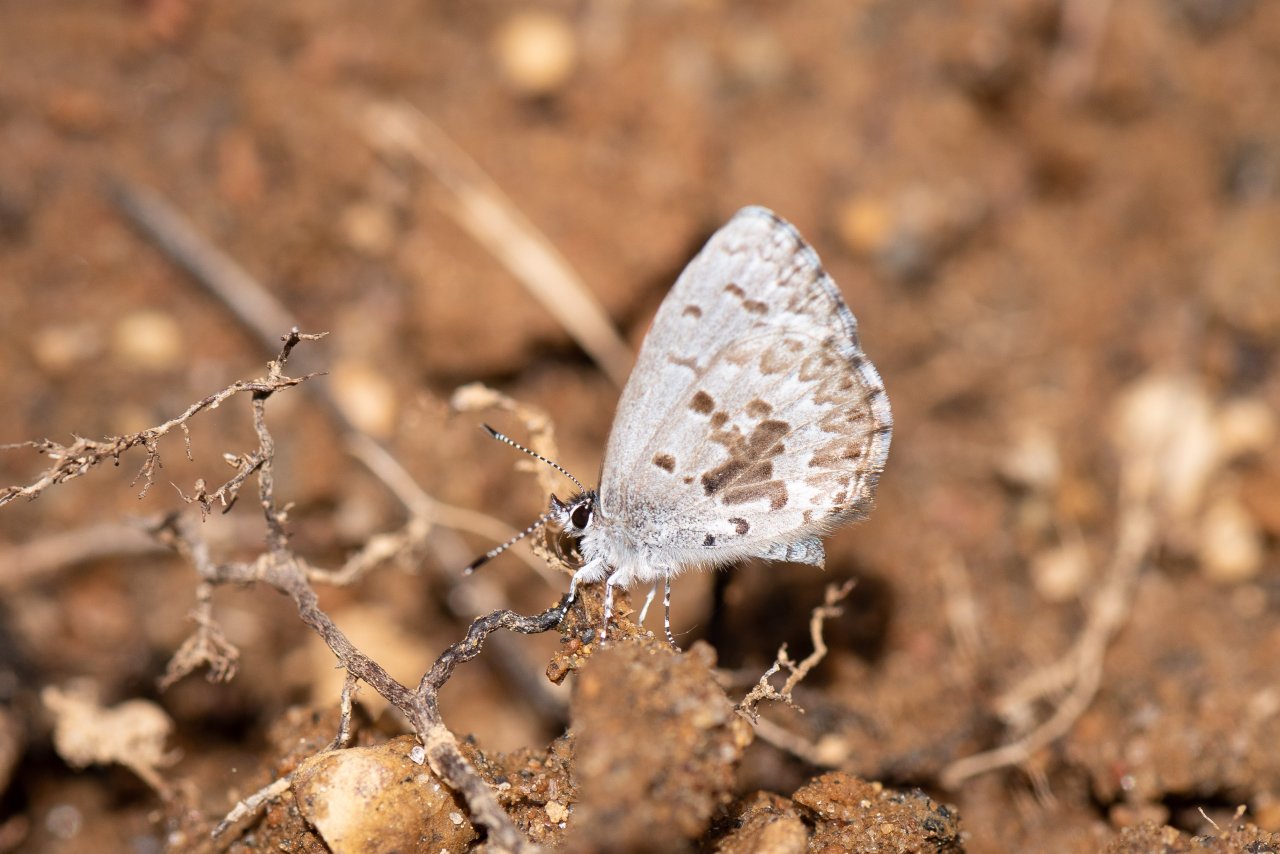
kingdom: Animalia
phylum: Arthropoda
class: Insecta
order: Lepidoptera
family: Lycaenidae
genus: Celastrina
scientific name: Celastrina lucia
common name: Northern Spring Azure
